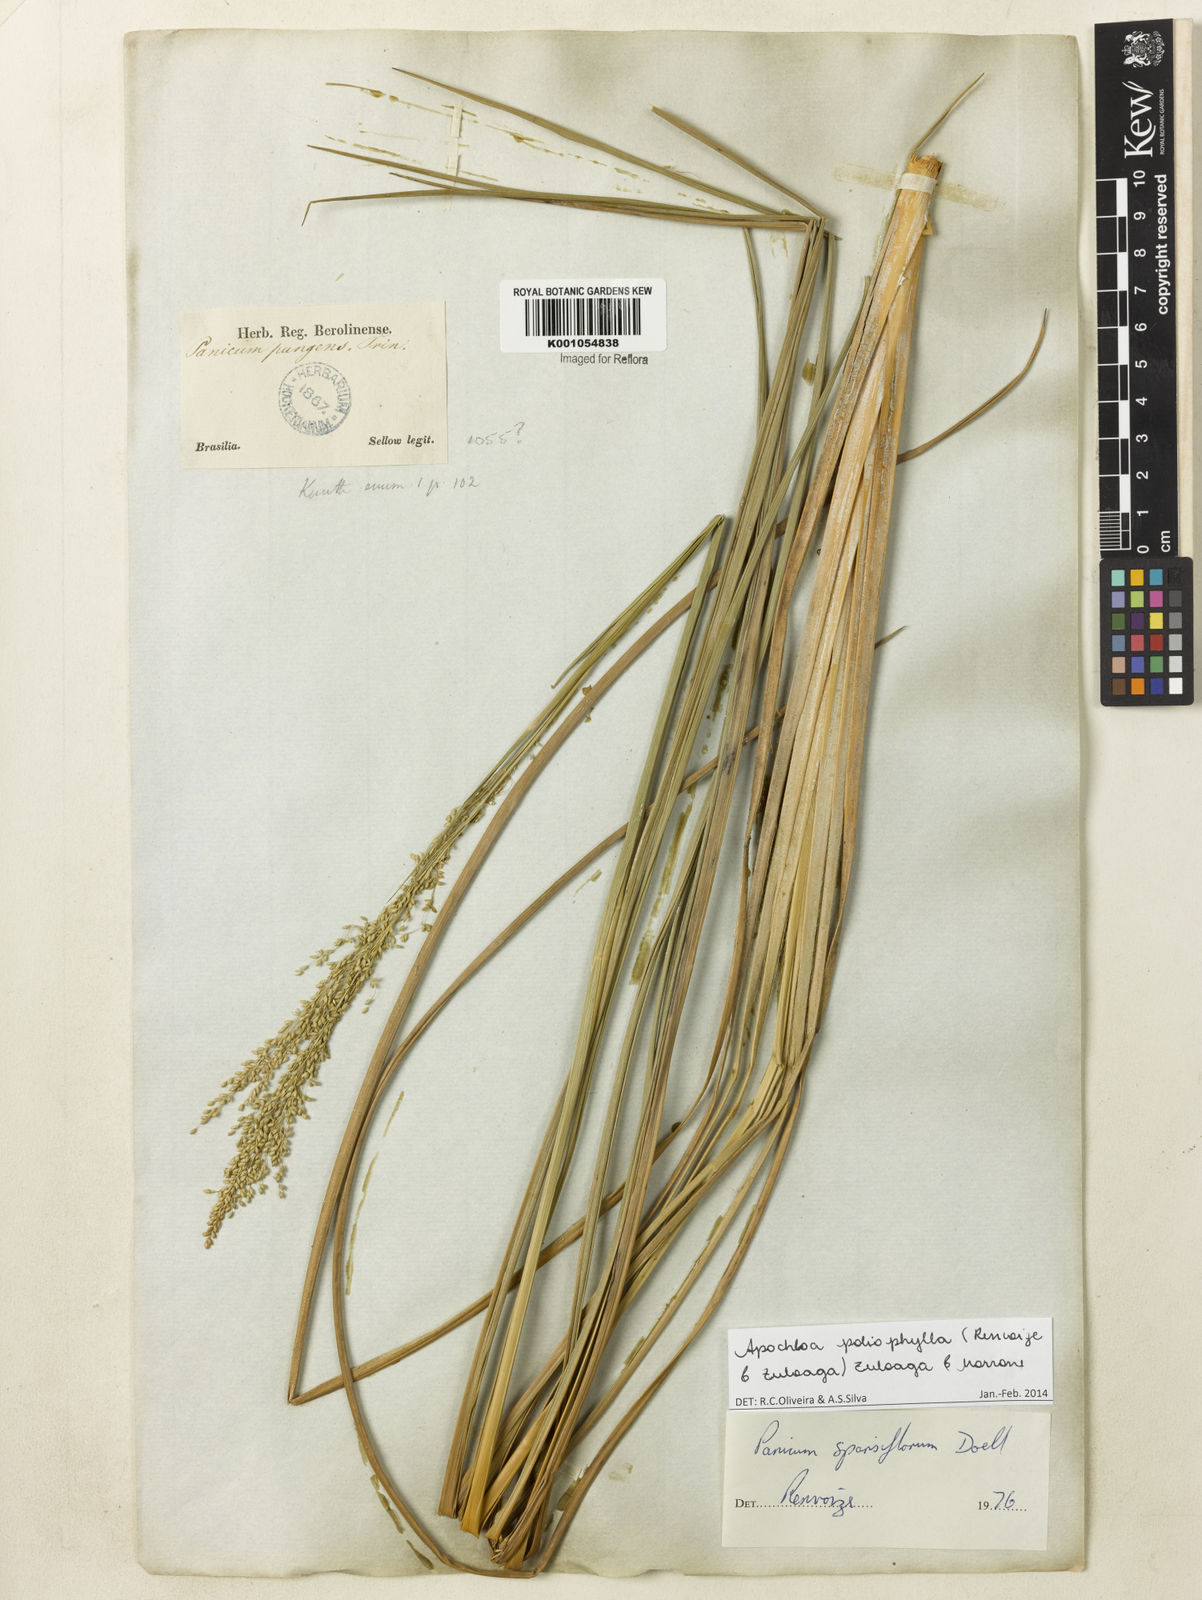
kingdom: Plantae
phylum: Tracheophyta
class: Liliopsida
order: Poales
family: Poaceae
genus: Apochloa
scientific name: Apochloa poliophylla
